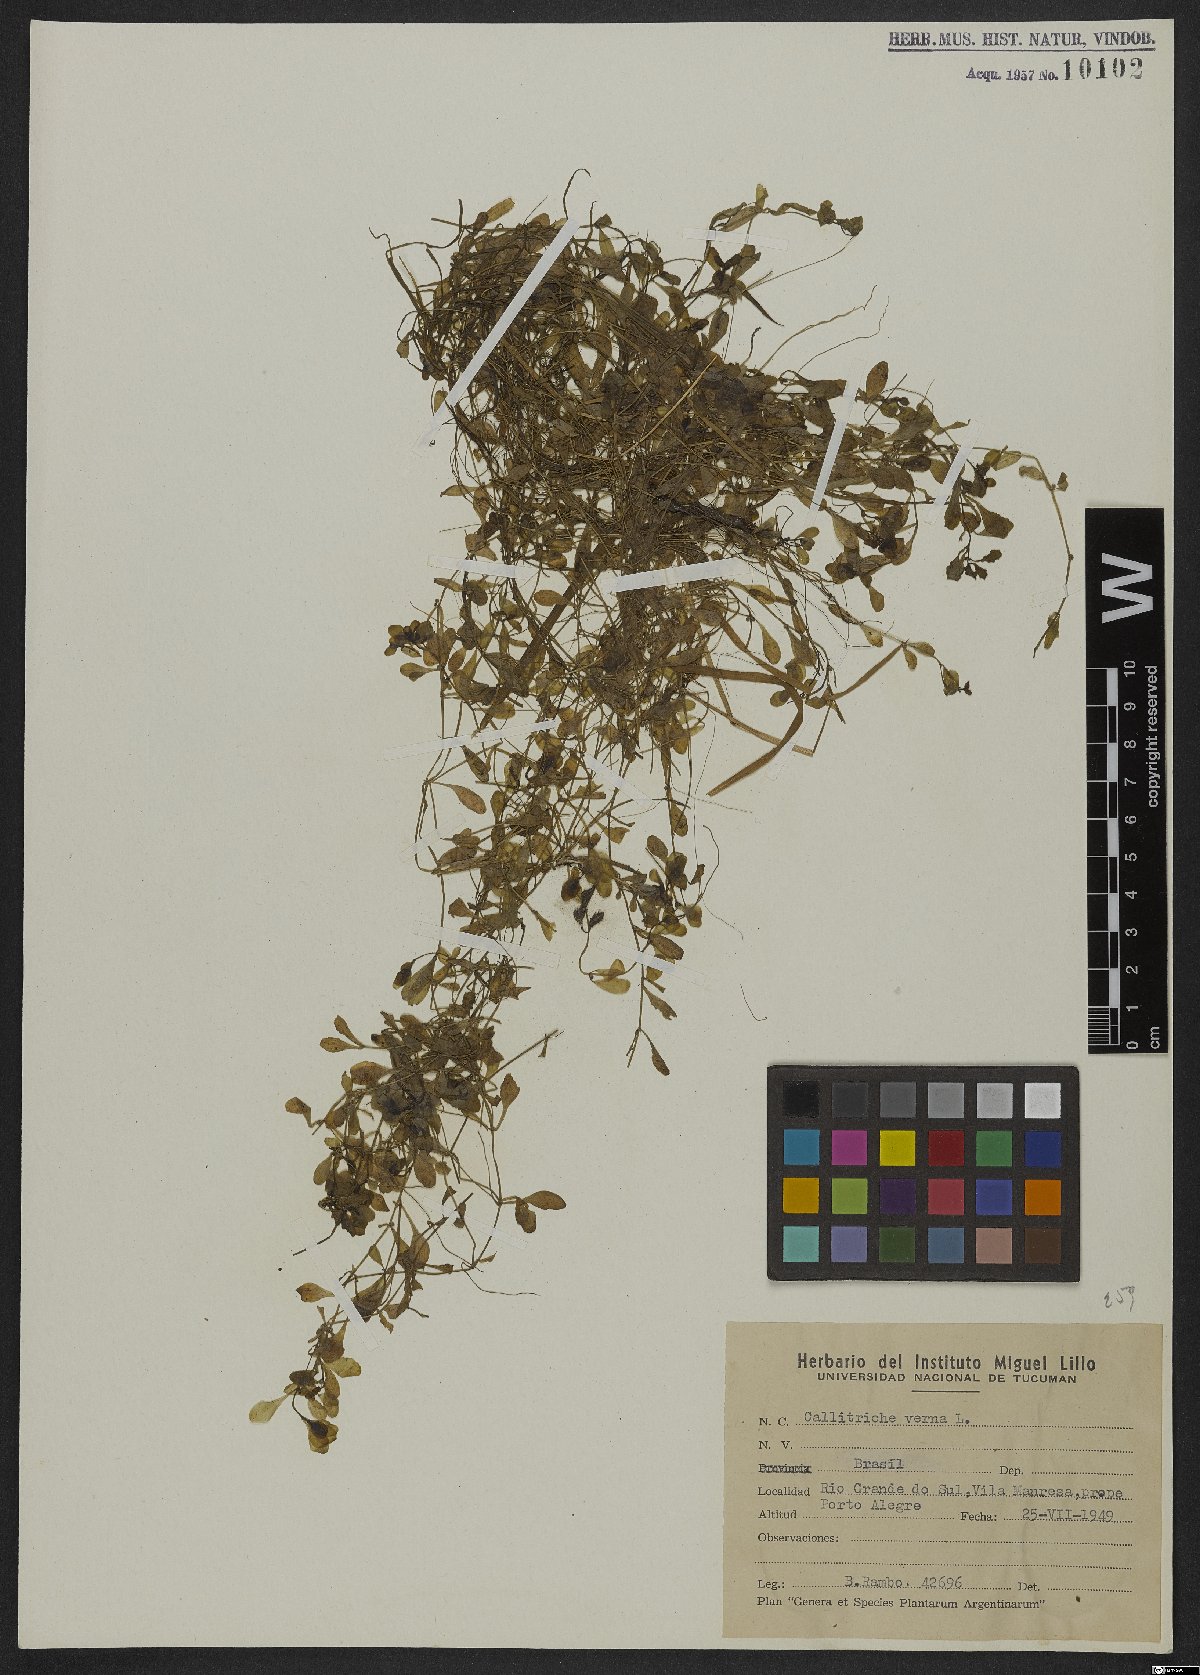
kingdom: Plantae
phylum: Tracheophyta
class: Magnoliopsida
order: Lamiales
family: Plantaginaceae
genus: Callitriche
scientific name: Callitriche palustris
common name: Spring water-starwort
